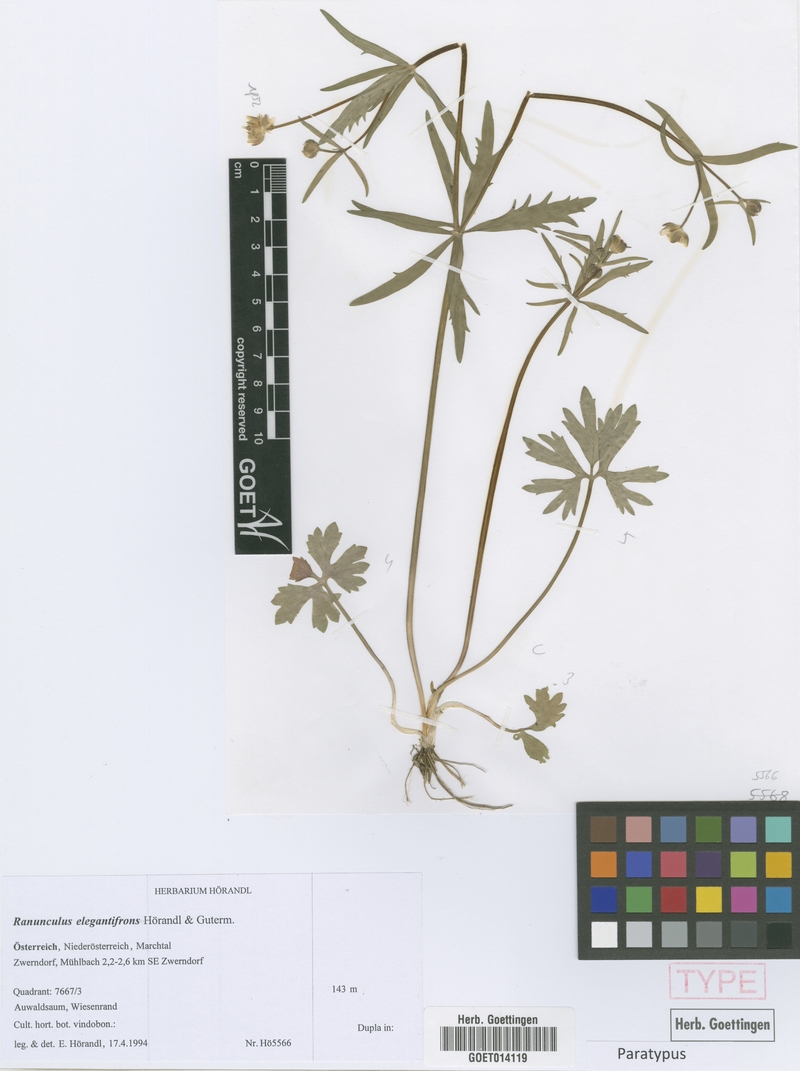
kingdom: Plantae
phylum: Tracheophyta
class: Magnoliopsida
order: Ranunculales
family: Ranunculaceae
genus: Ranunculus
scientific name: Ranunculus elegantifrons
